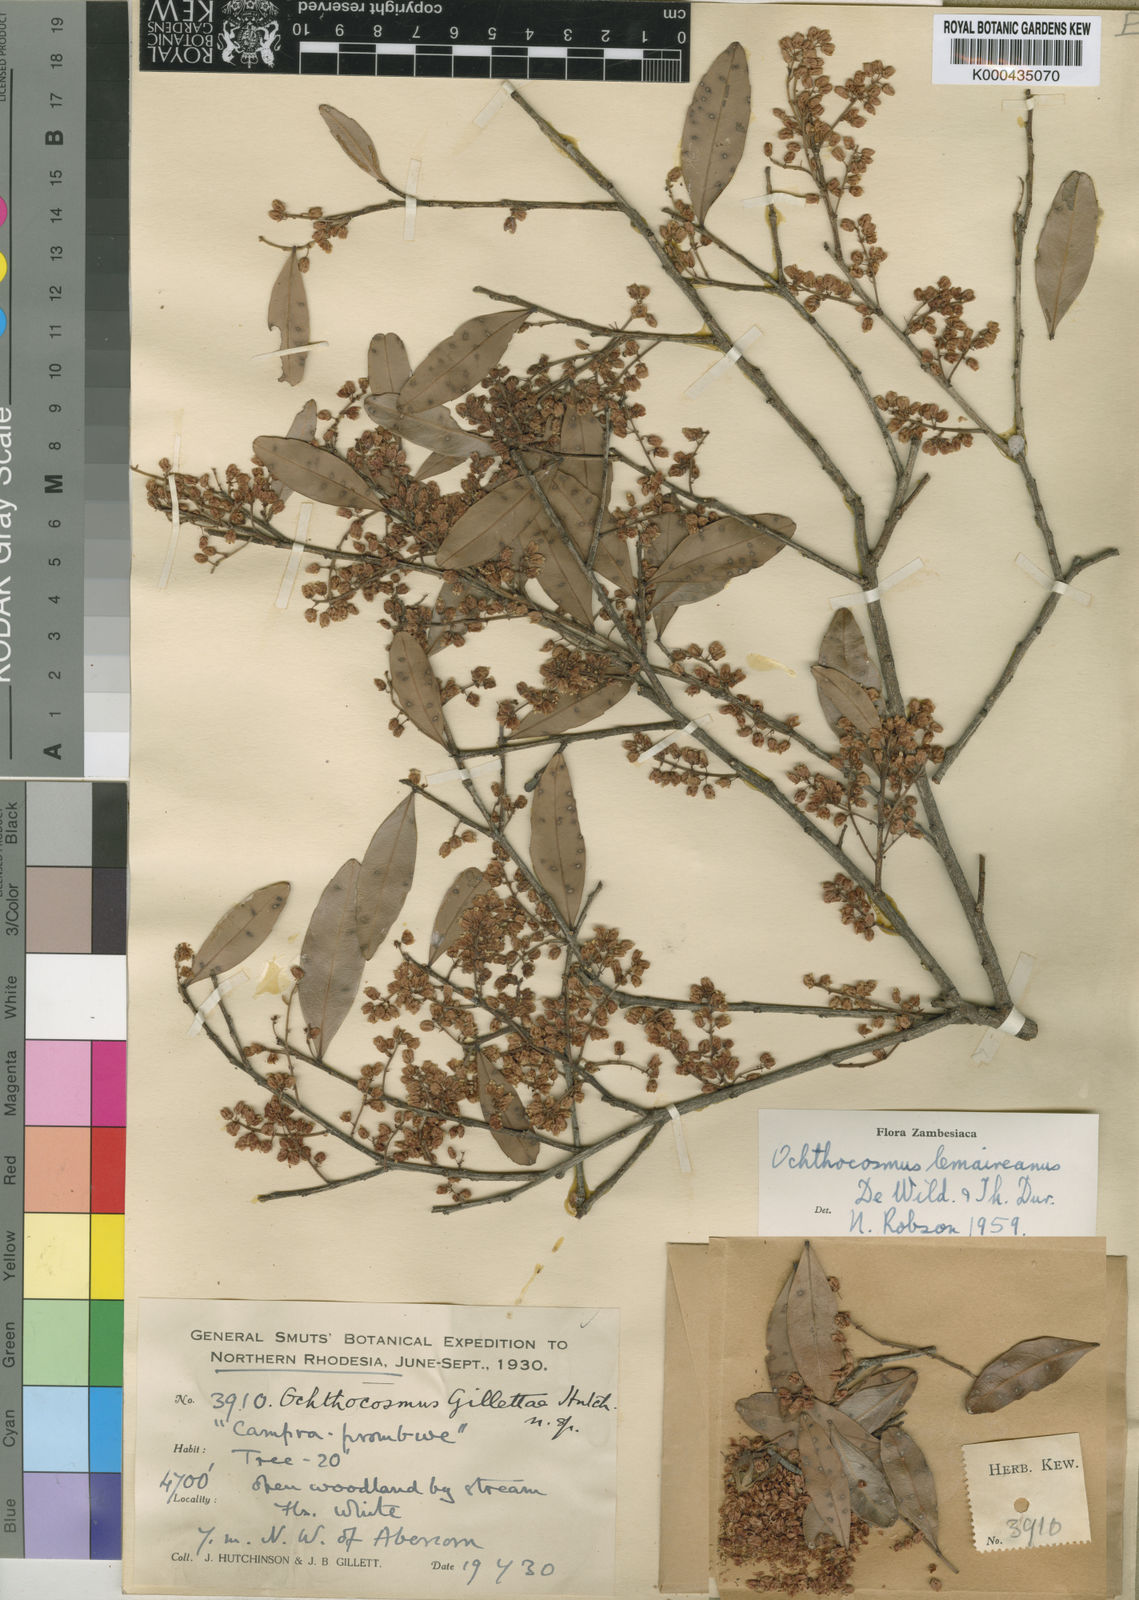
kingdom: Plantae
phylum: Tracheophyta
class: Magnoliopsida
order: Malpighiales
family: Ixonanthaceae
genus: Phyllocosmus
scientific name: Phyllocosmus lemaireanus
